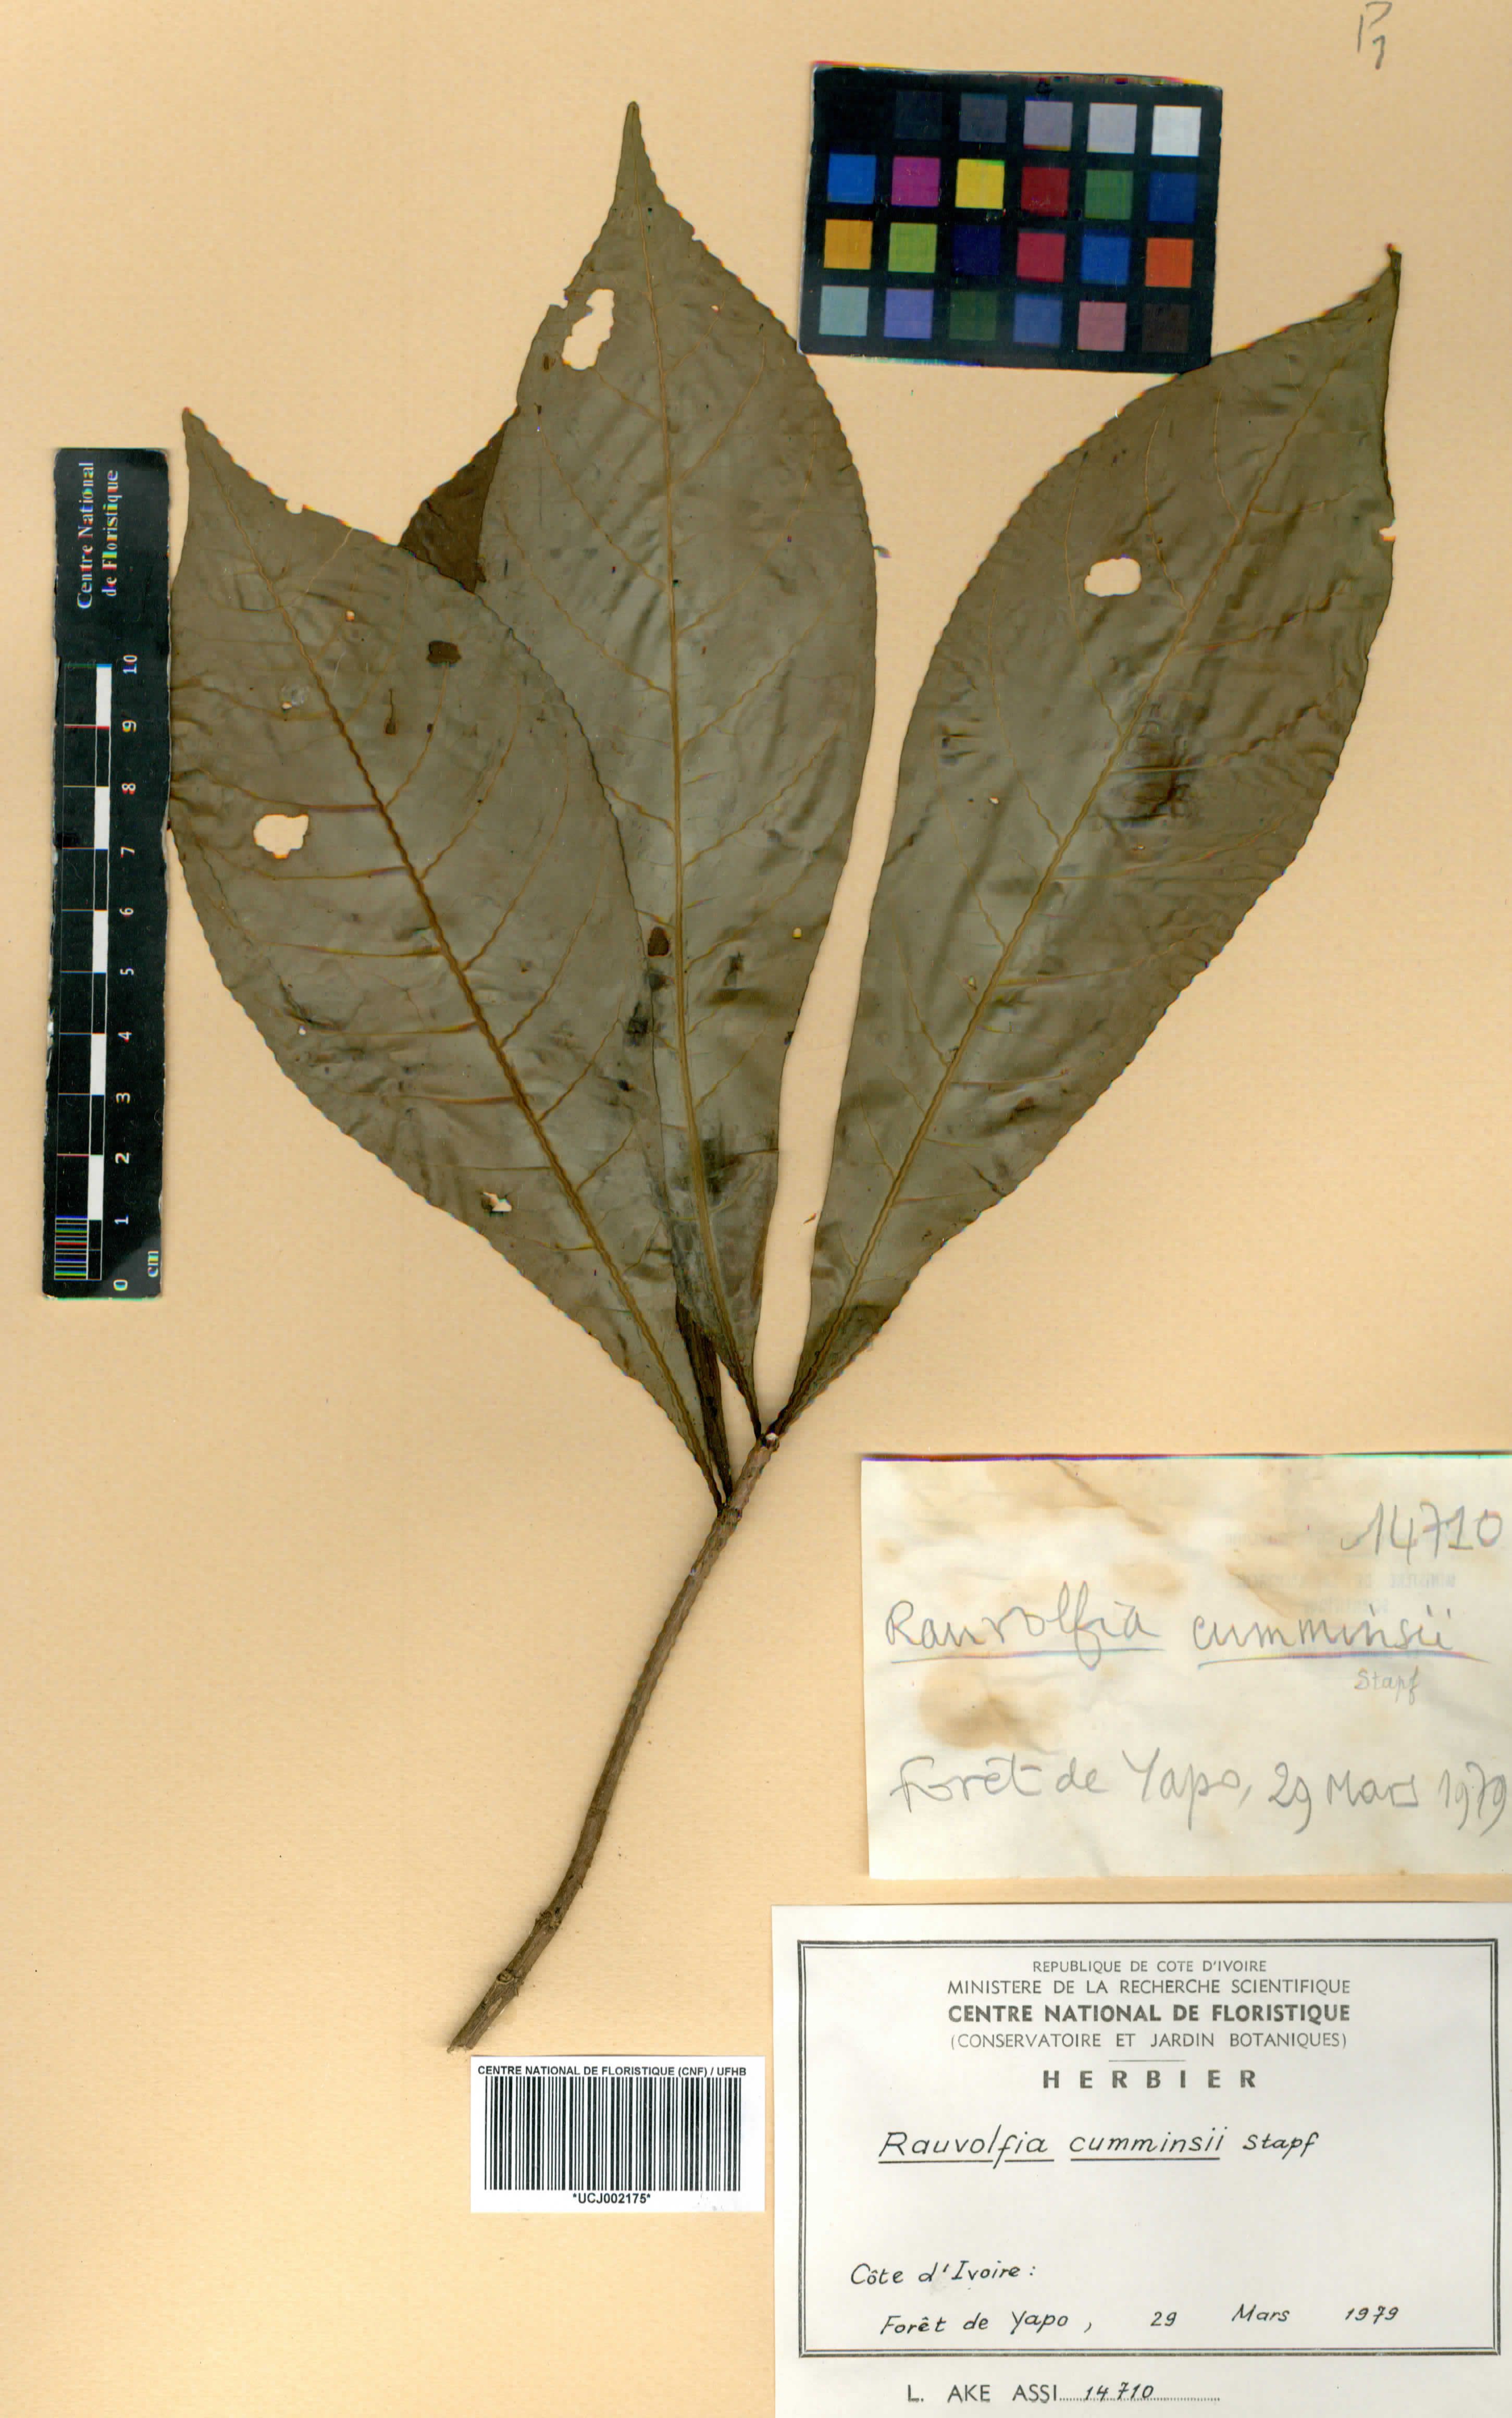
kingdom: Plantae
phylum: Tracheophyta
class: Magnoliopsida
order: Gentianales
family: Apocynaceae
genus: Rauvolfia
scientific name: Rauvolfia mannii
